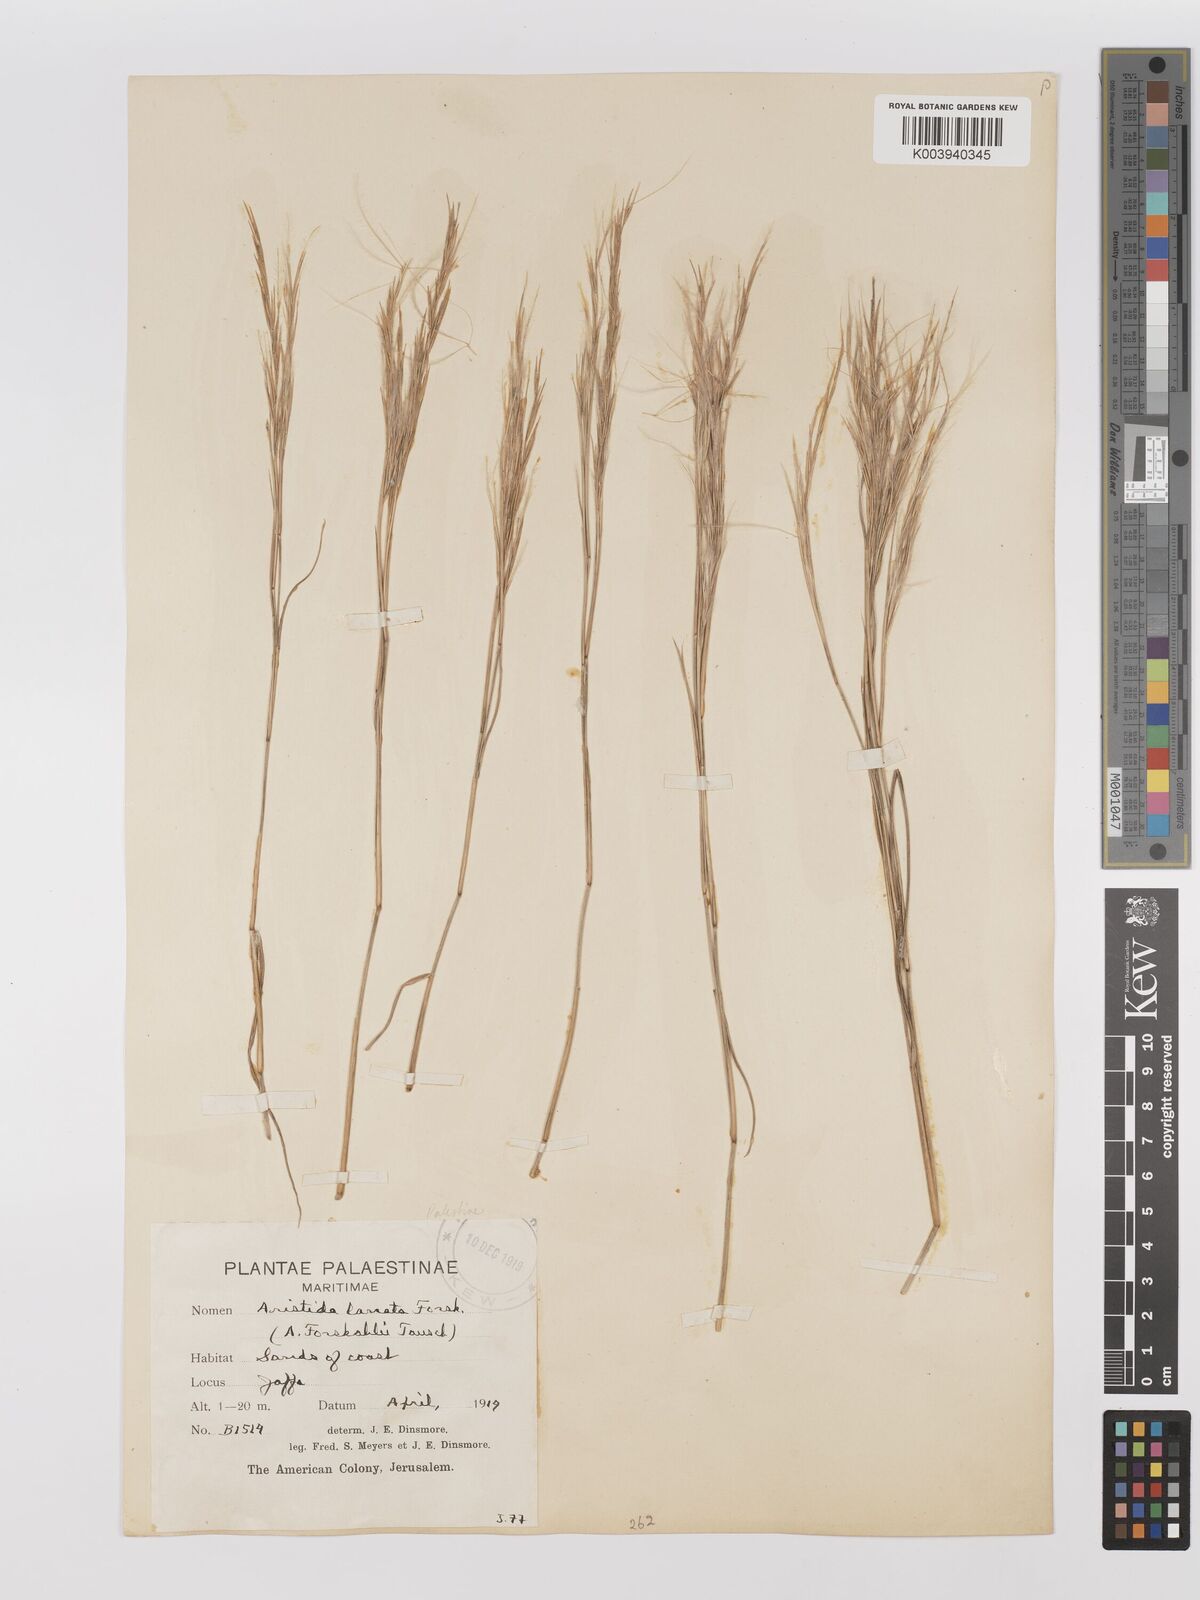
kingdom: Plantae
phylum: Tracheophyta
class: Liliopsida
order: Poales
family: Poaceae
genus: Stipagrostis
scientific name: Stipagrostis lanata
